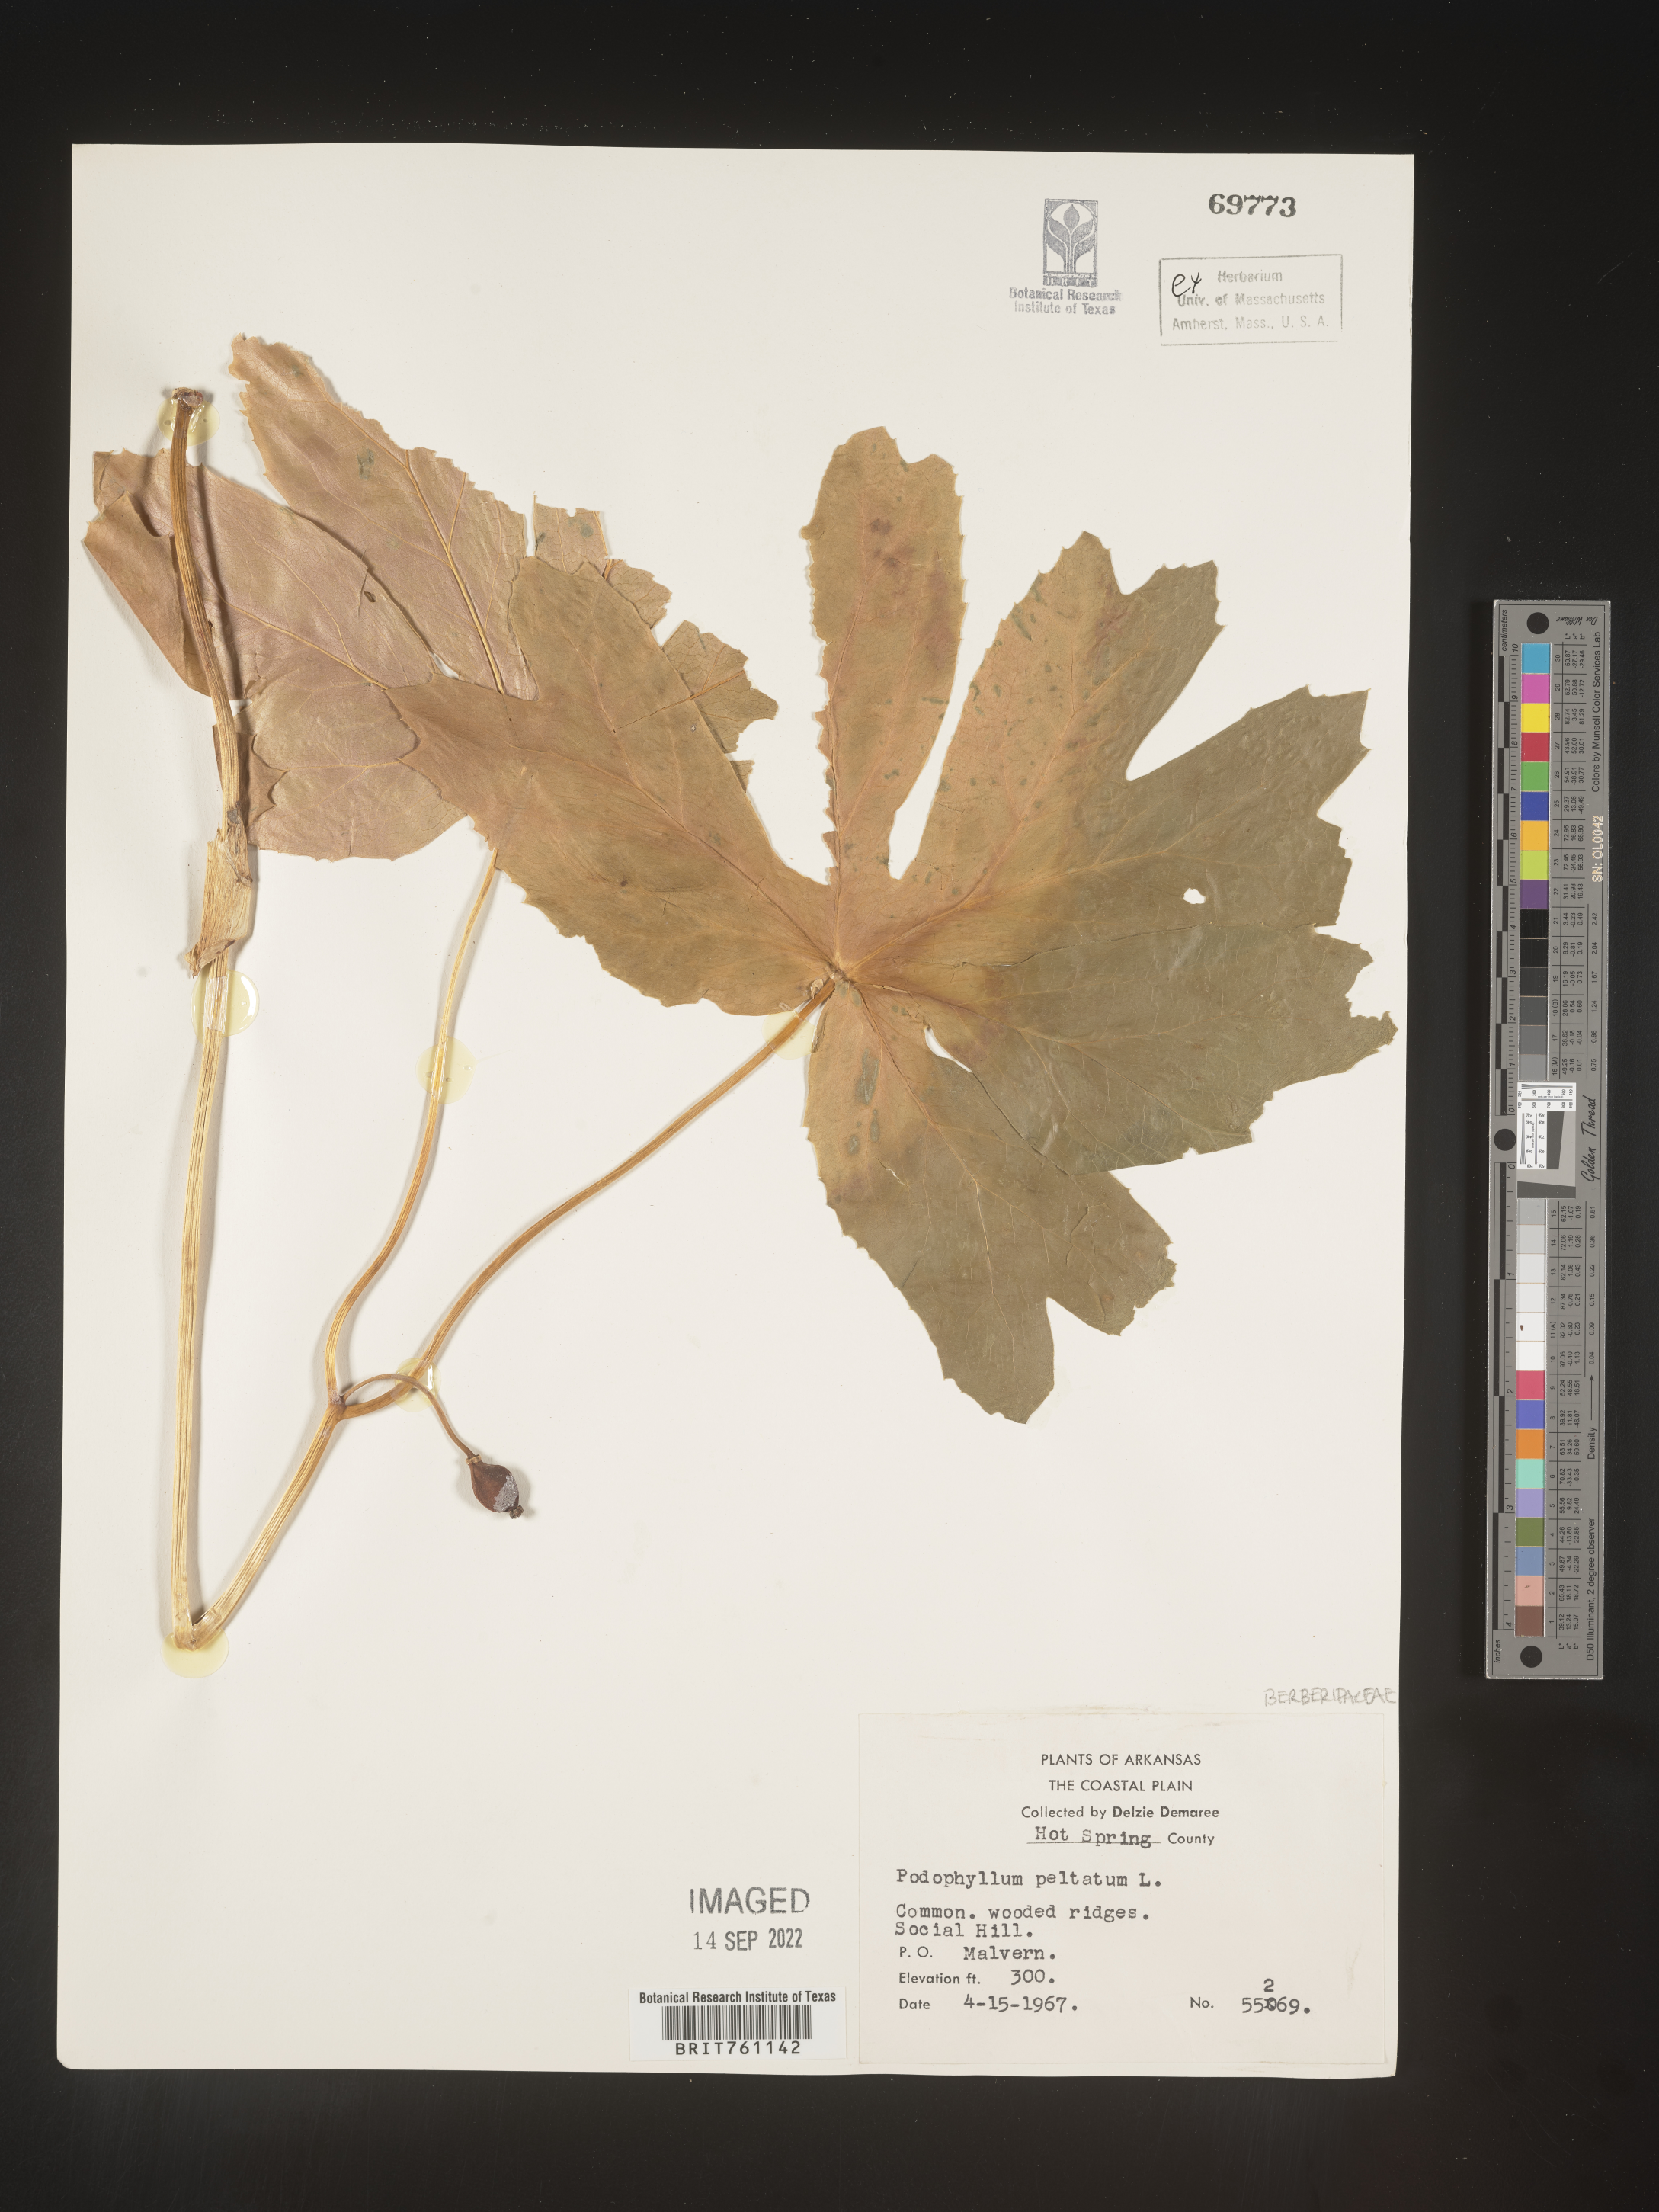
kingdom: Plantae
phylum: Tracheophyta
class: Magnoliopsida
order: Ranunculales
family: Berberidaceae
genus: Podophyllum
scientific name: Podophyllum peltatum
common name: Wild mandrake
